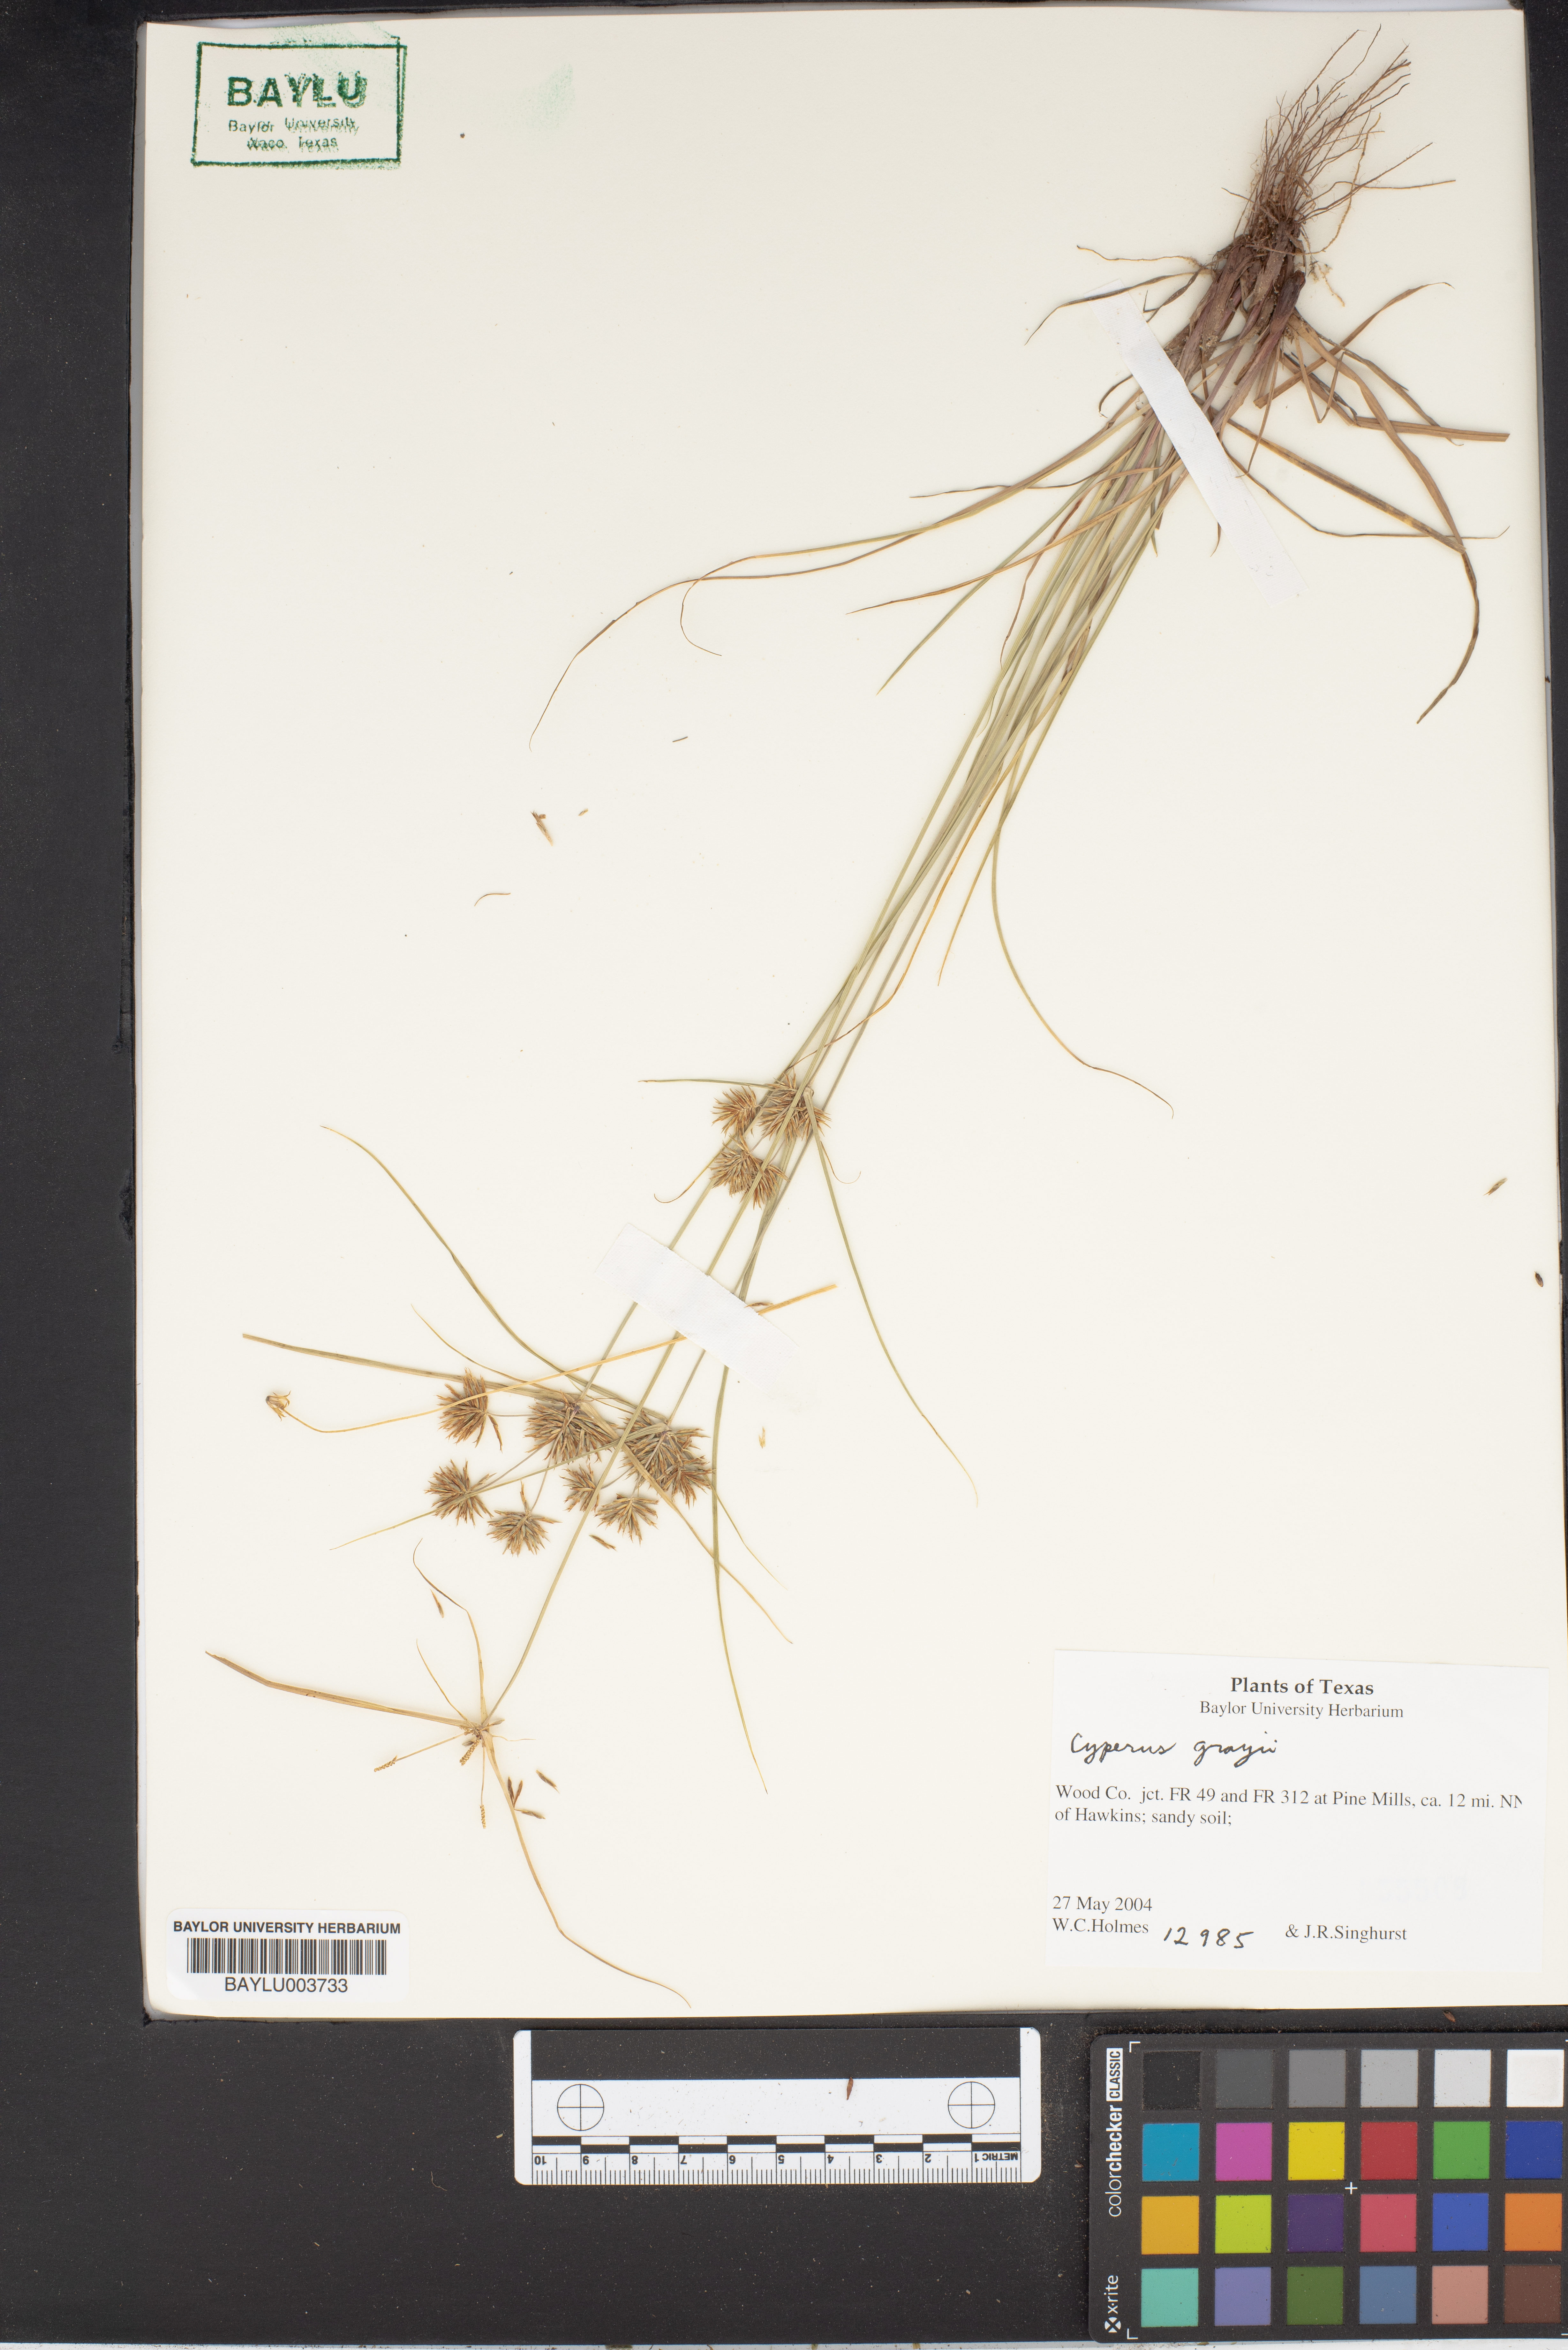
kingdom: Plantae
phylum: Tracheophyta
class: Liliopsida
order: Poales
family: Cyperaceae
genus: Cyperus
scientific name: Cyperus grayi
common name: Gray's flat sedge
